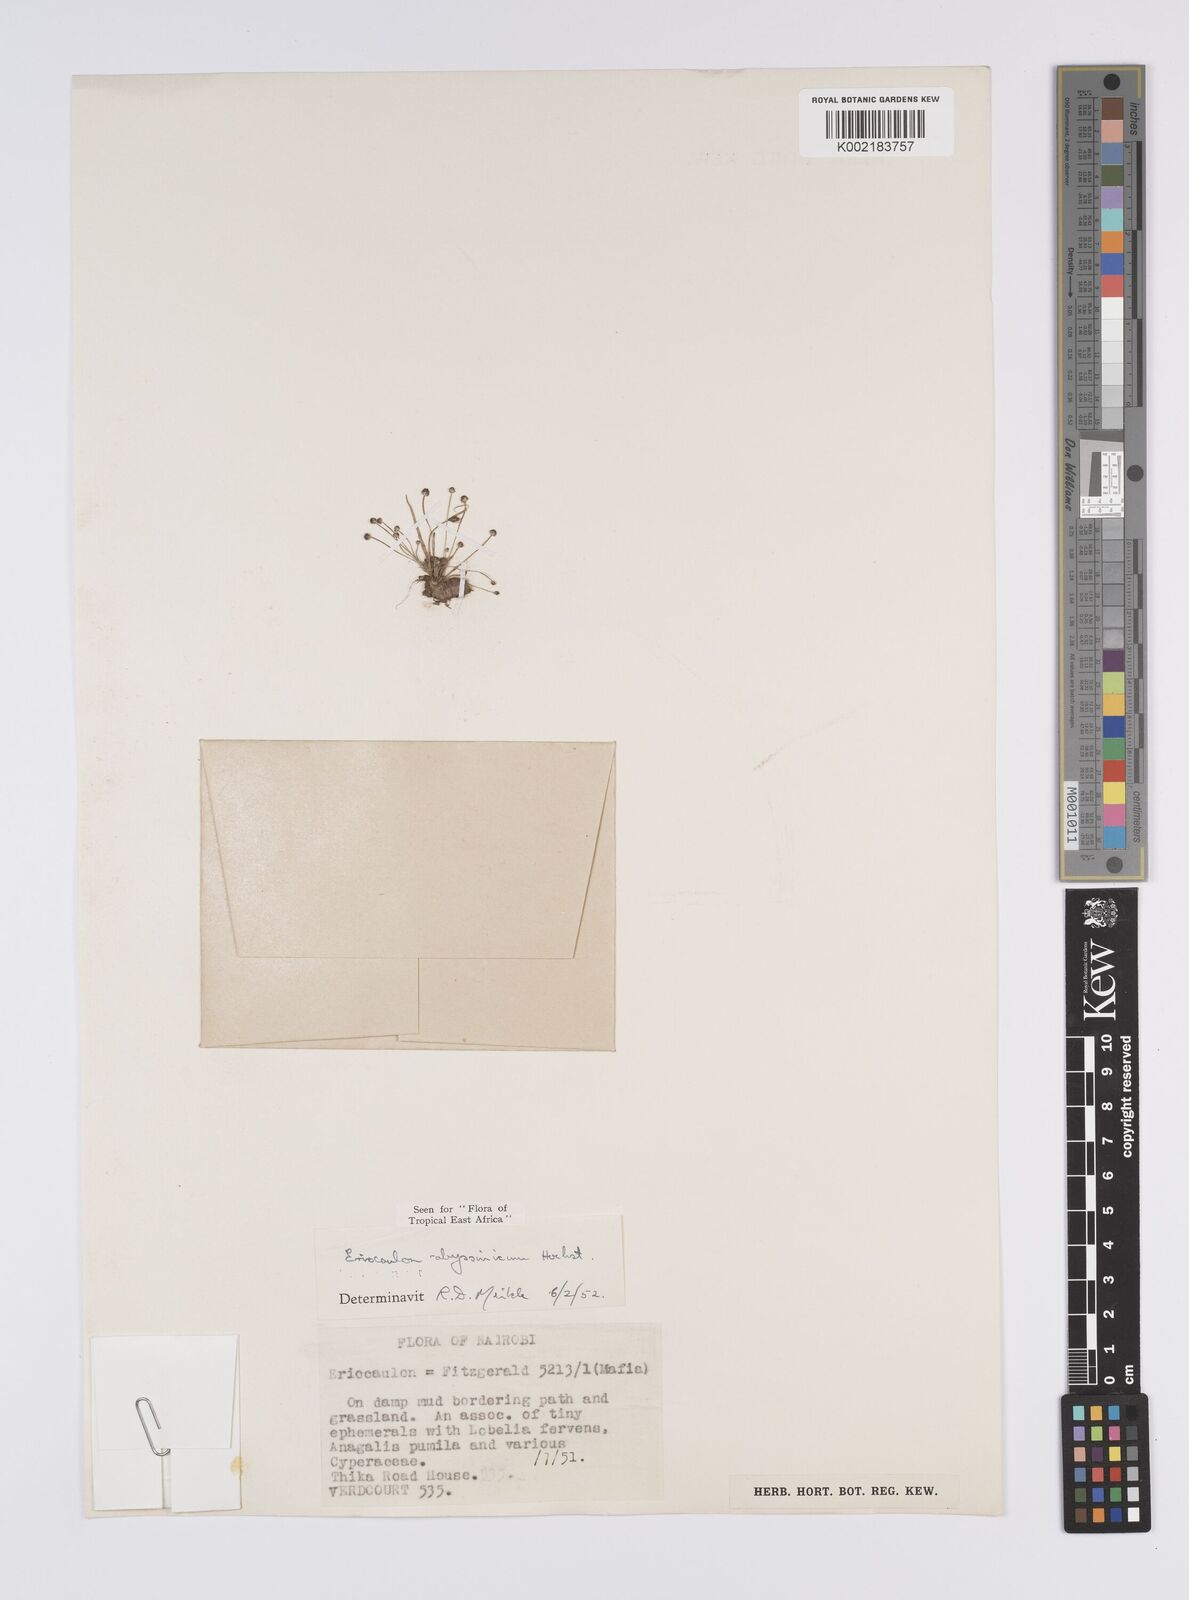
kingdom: Plantae
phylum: Tracheophyta
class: Liliopsida
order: Poales
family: Eriocaulaceae
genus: Eriocaulon
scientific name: Eriocaulon abyssinicum
